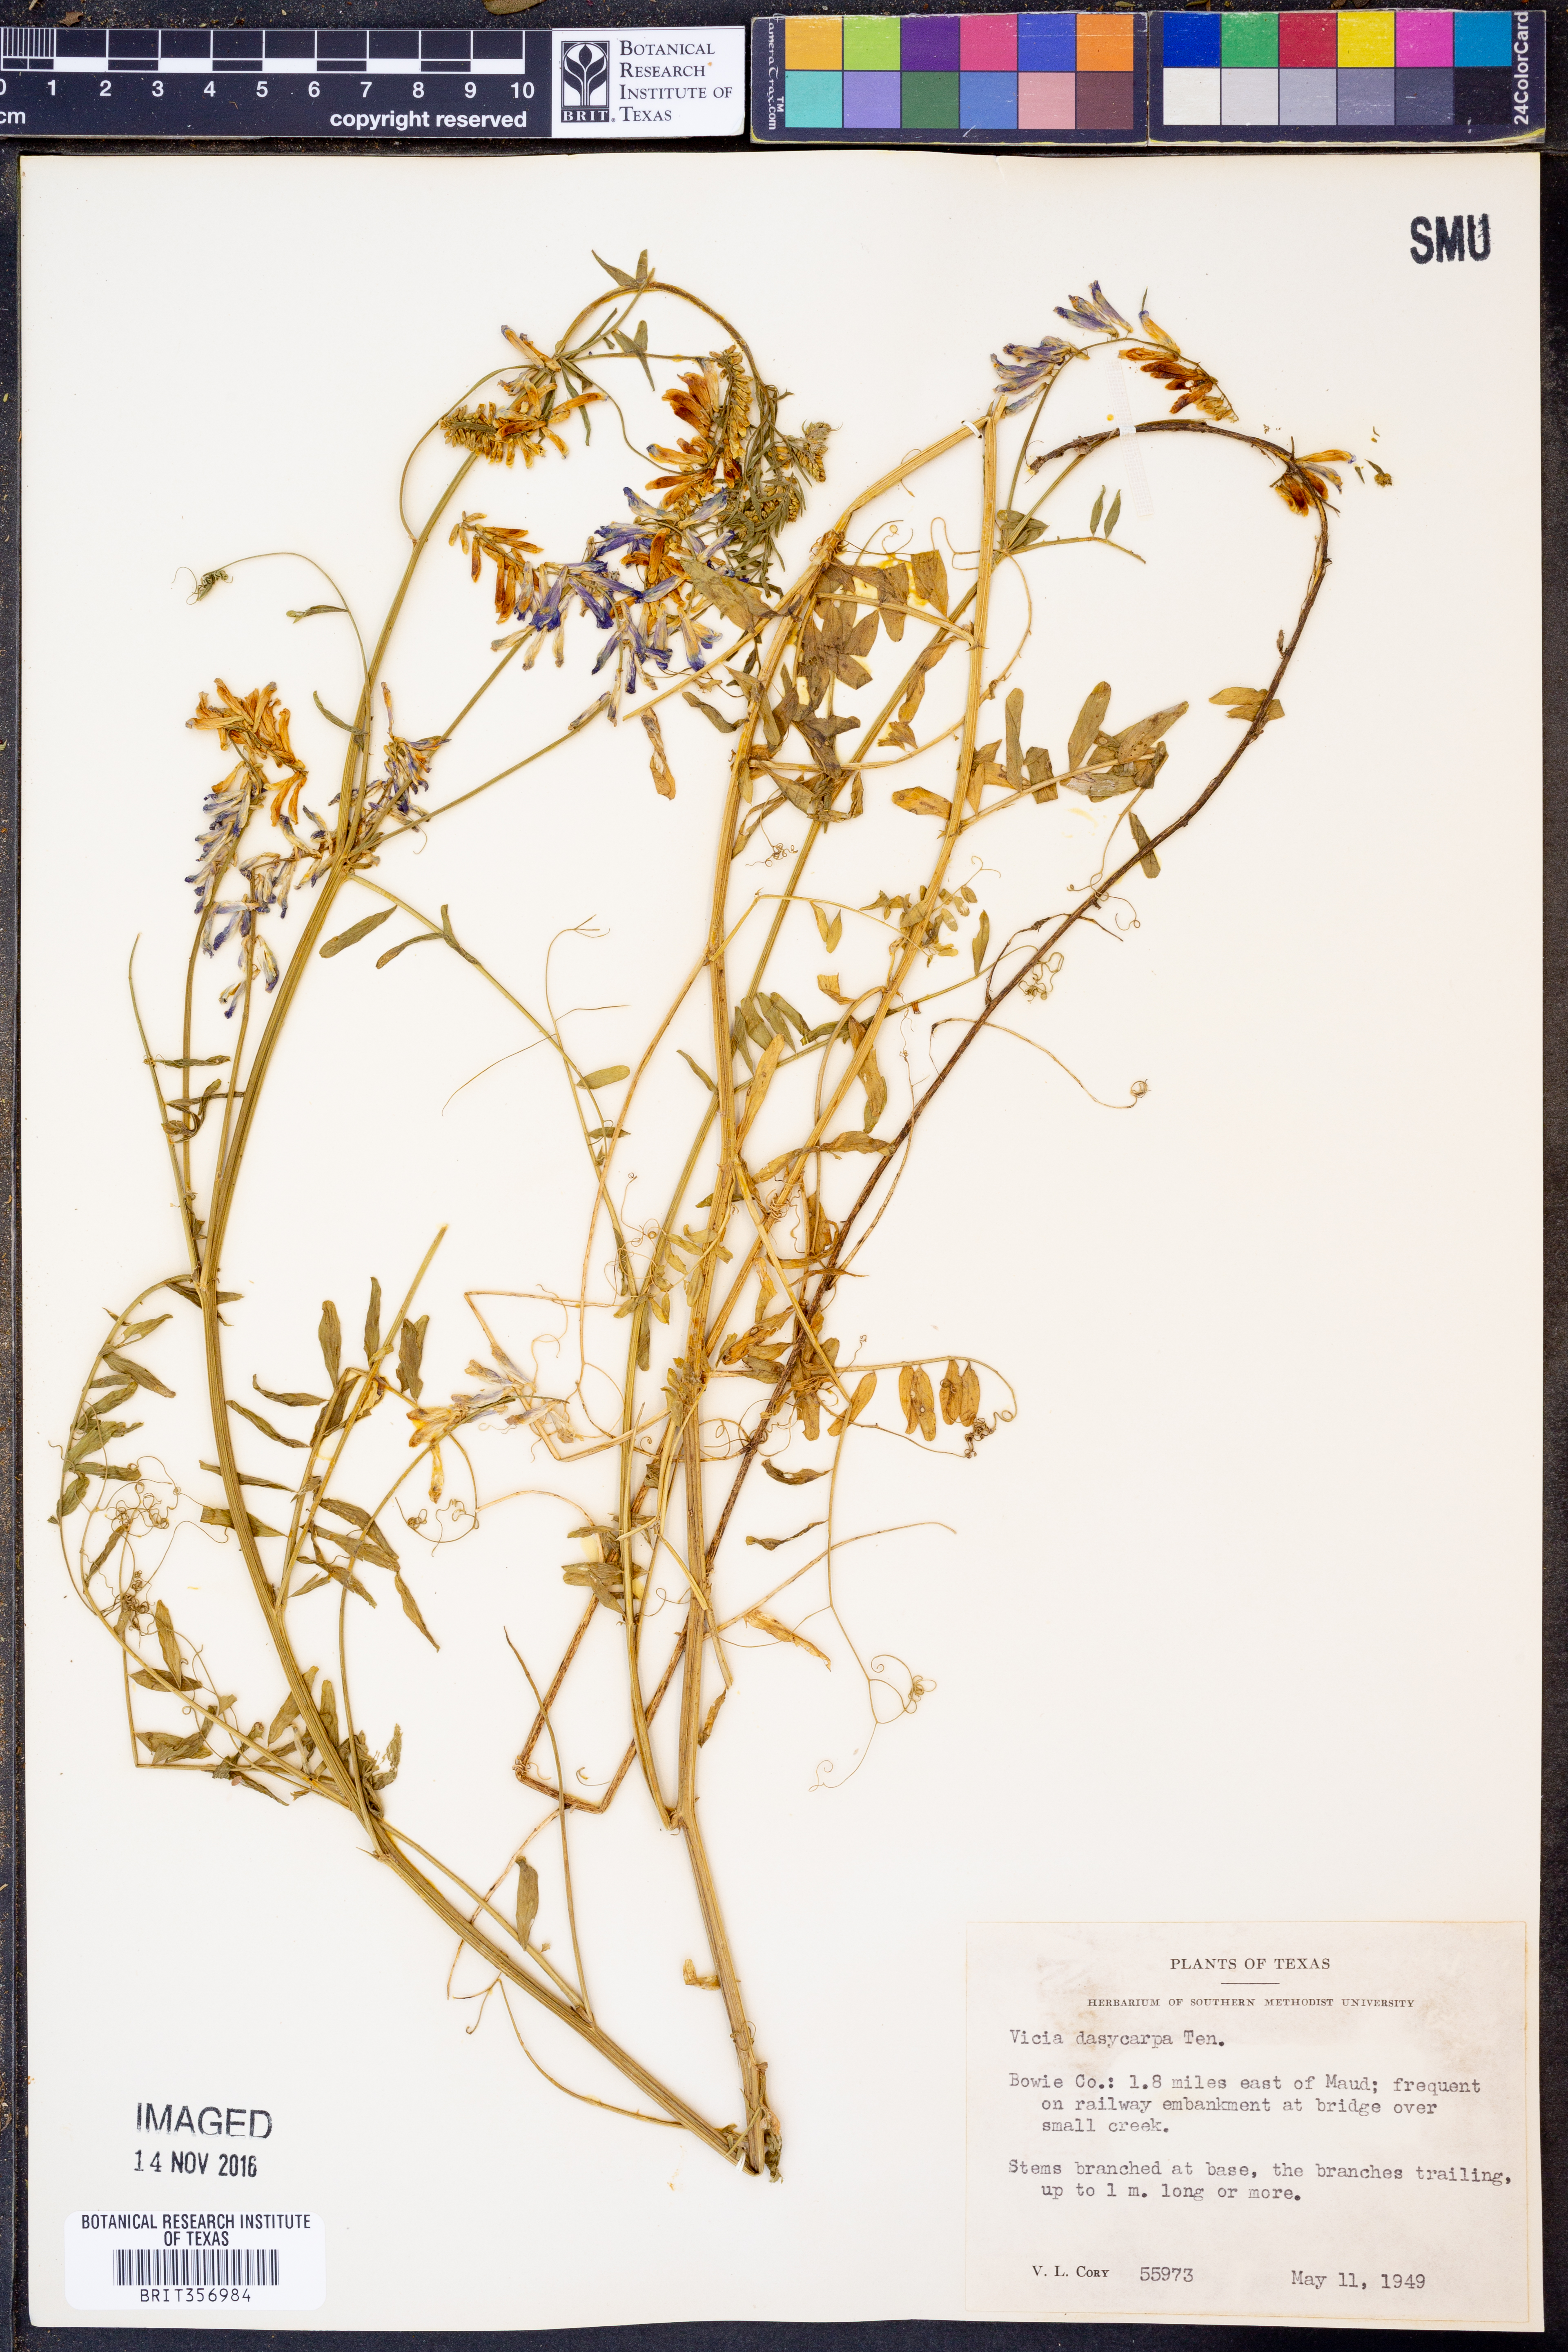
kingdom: Plantae
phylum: Tracheophyta
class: Magnoliopsida
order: Fabales
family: Fabaceae
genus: Vicia
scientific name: Vicia villosa
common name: Fodder vetch
